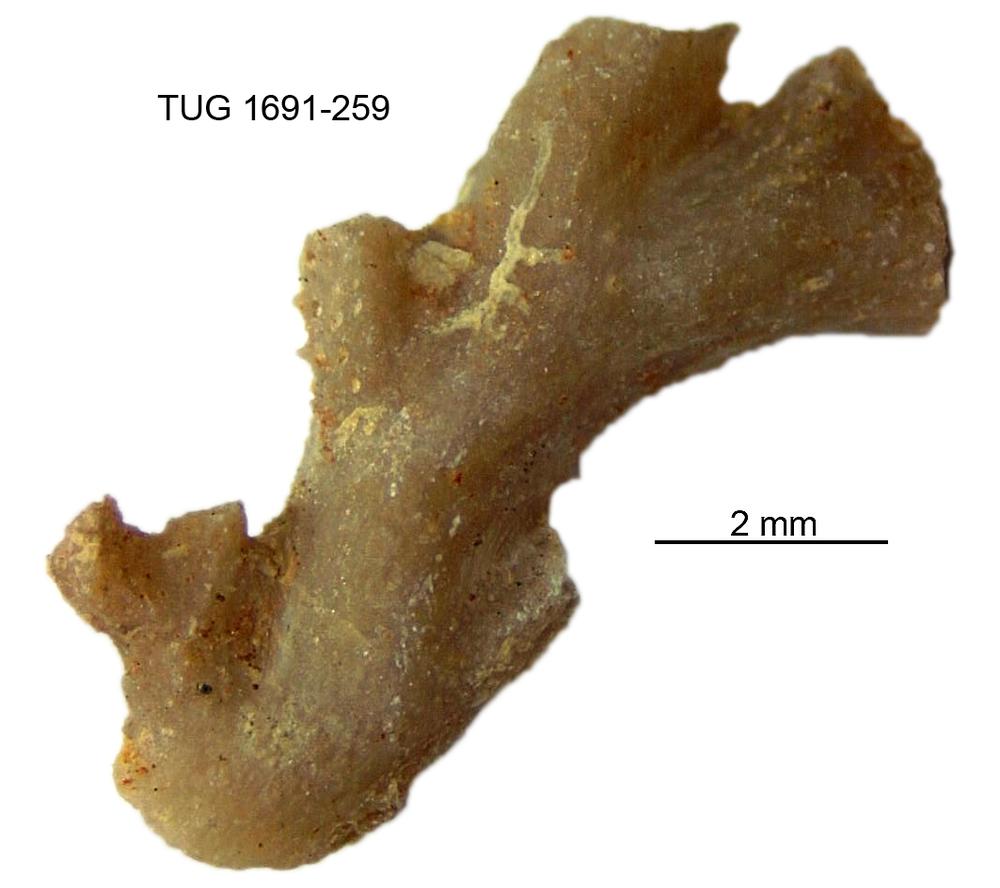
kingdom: Animalia
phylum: Bryozoa
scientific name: Bryozoa
